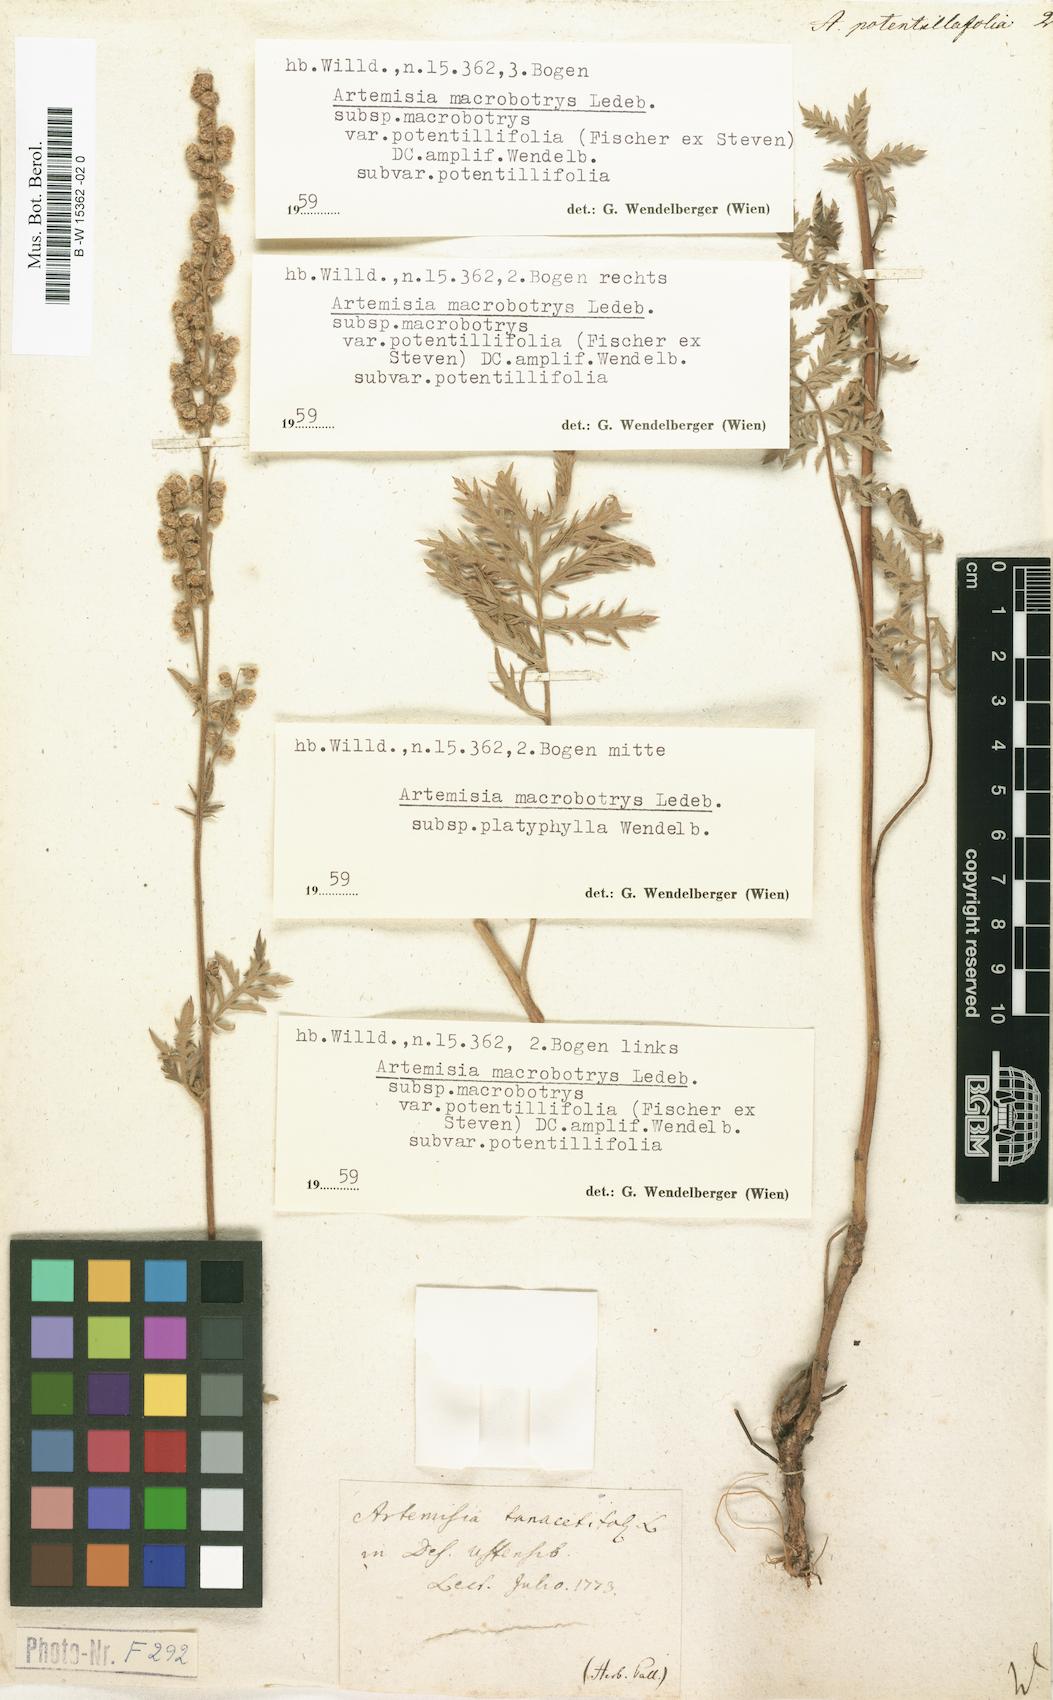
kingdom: Plantae
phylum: Tracheophyta
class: Magnoliopsida
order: Asterales
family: Asteraceae
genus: Artemisia
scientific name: Artemisia armeniaca
